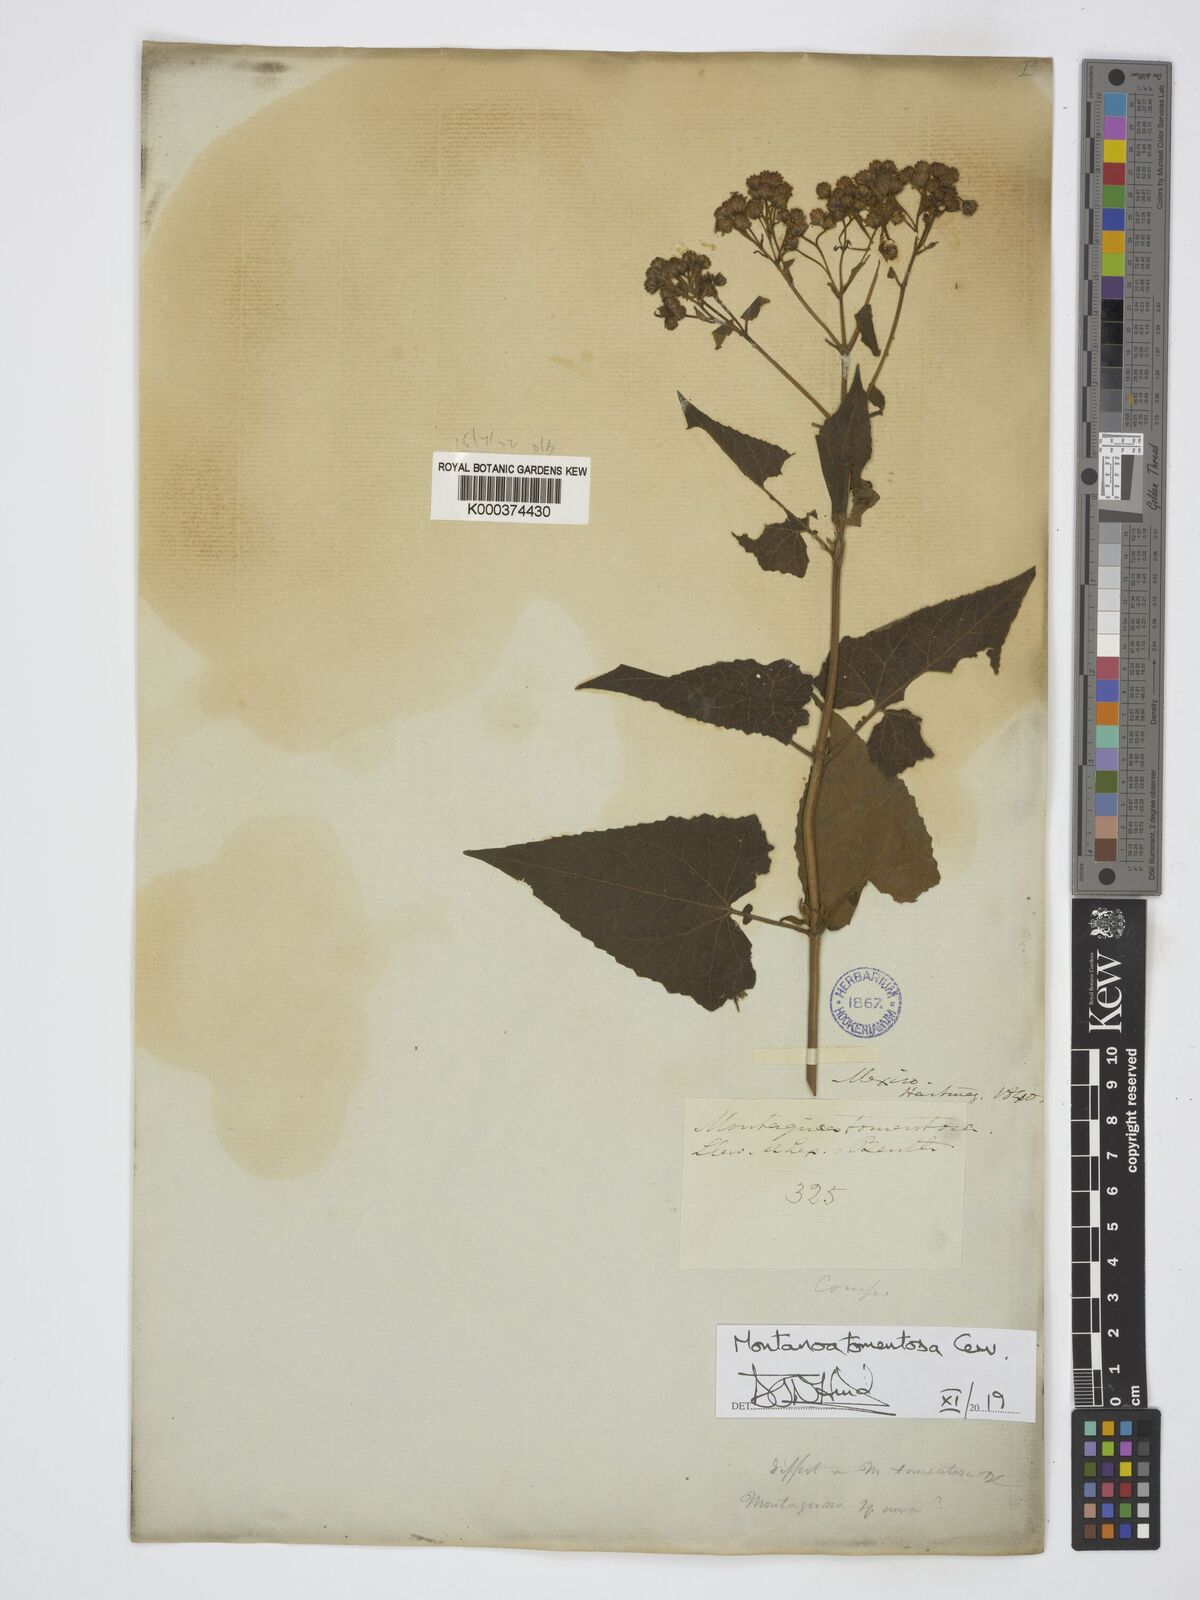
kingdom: Plantae
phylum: Tracheophyta
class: Magnoliopsida
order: Asterales
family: Asteraceae
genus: Montanoa
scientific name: Montanoa tomentosa
